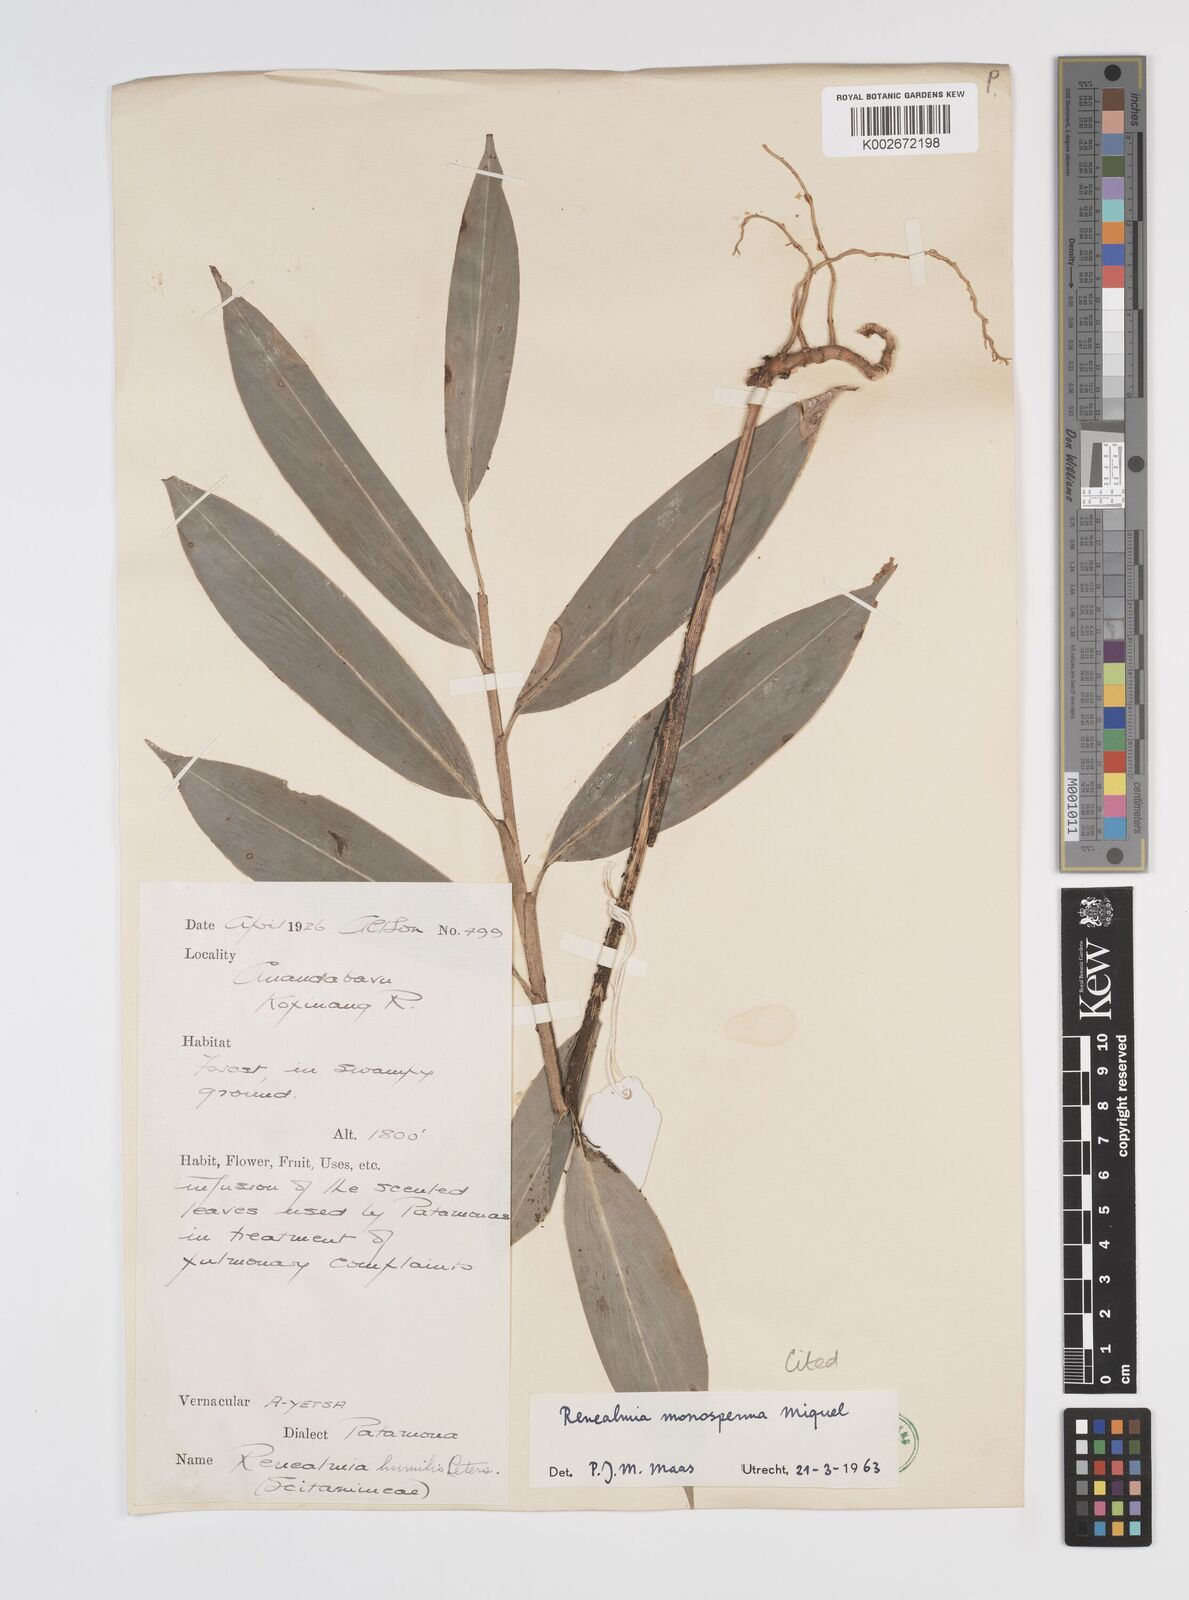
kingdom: Plantae
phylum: Tracheophyta
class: Liliopsida
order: Zingiberales
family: Zingiberaceae
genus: Renealmia
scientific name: Renealmia monosperma
